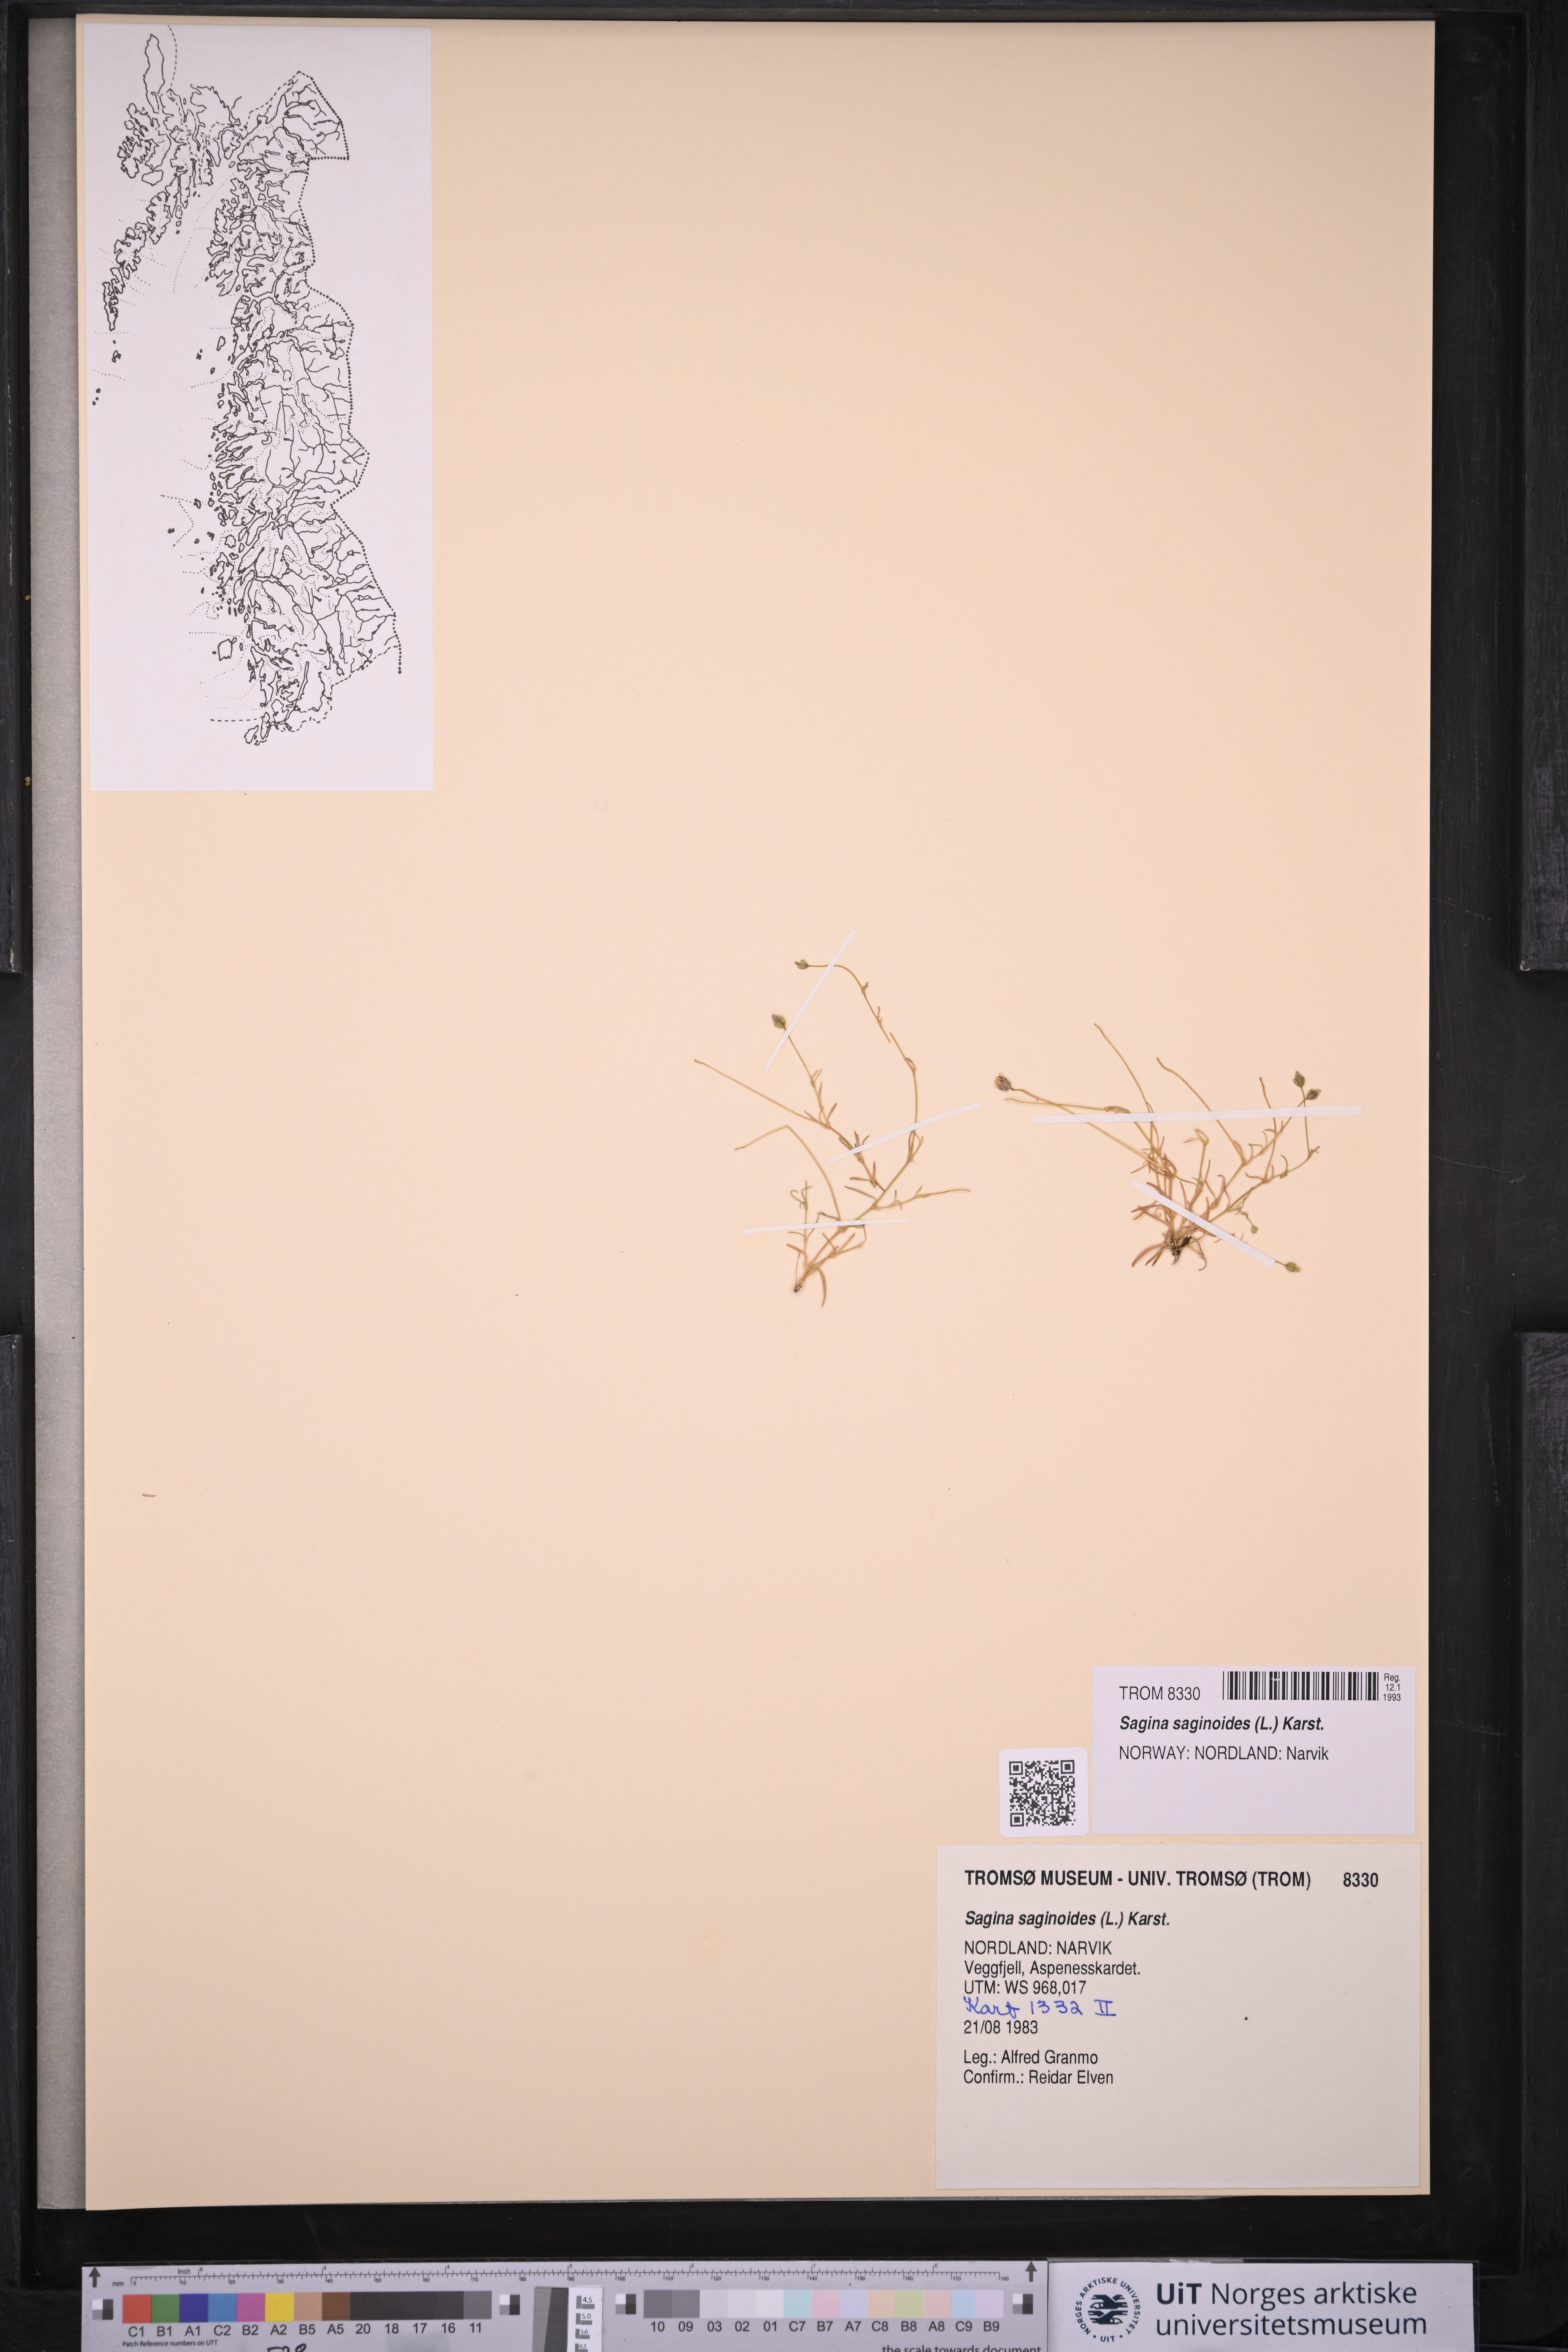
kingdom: Plantae
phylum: Tracheophyta
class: Magnoliopsida
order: Caryophyllales
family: Caryophyllaceae
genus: Sagina
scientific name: Sagina saginoides
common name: Alpine pearlwort
